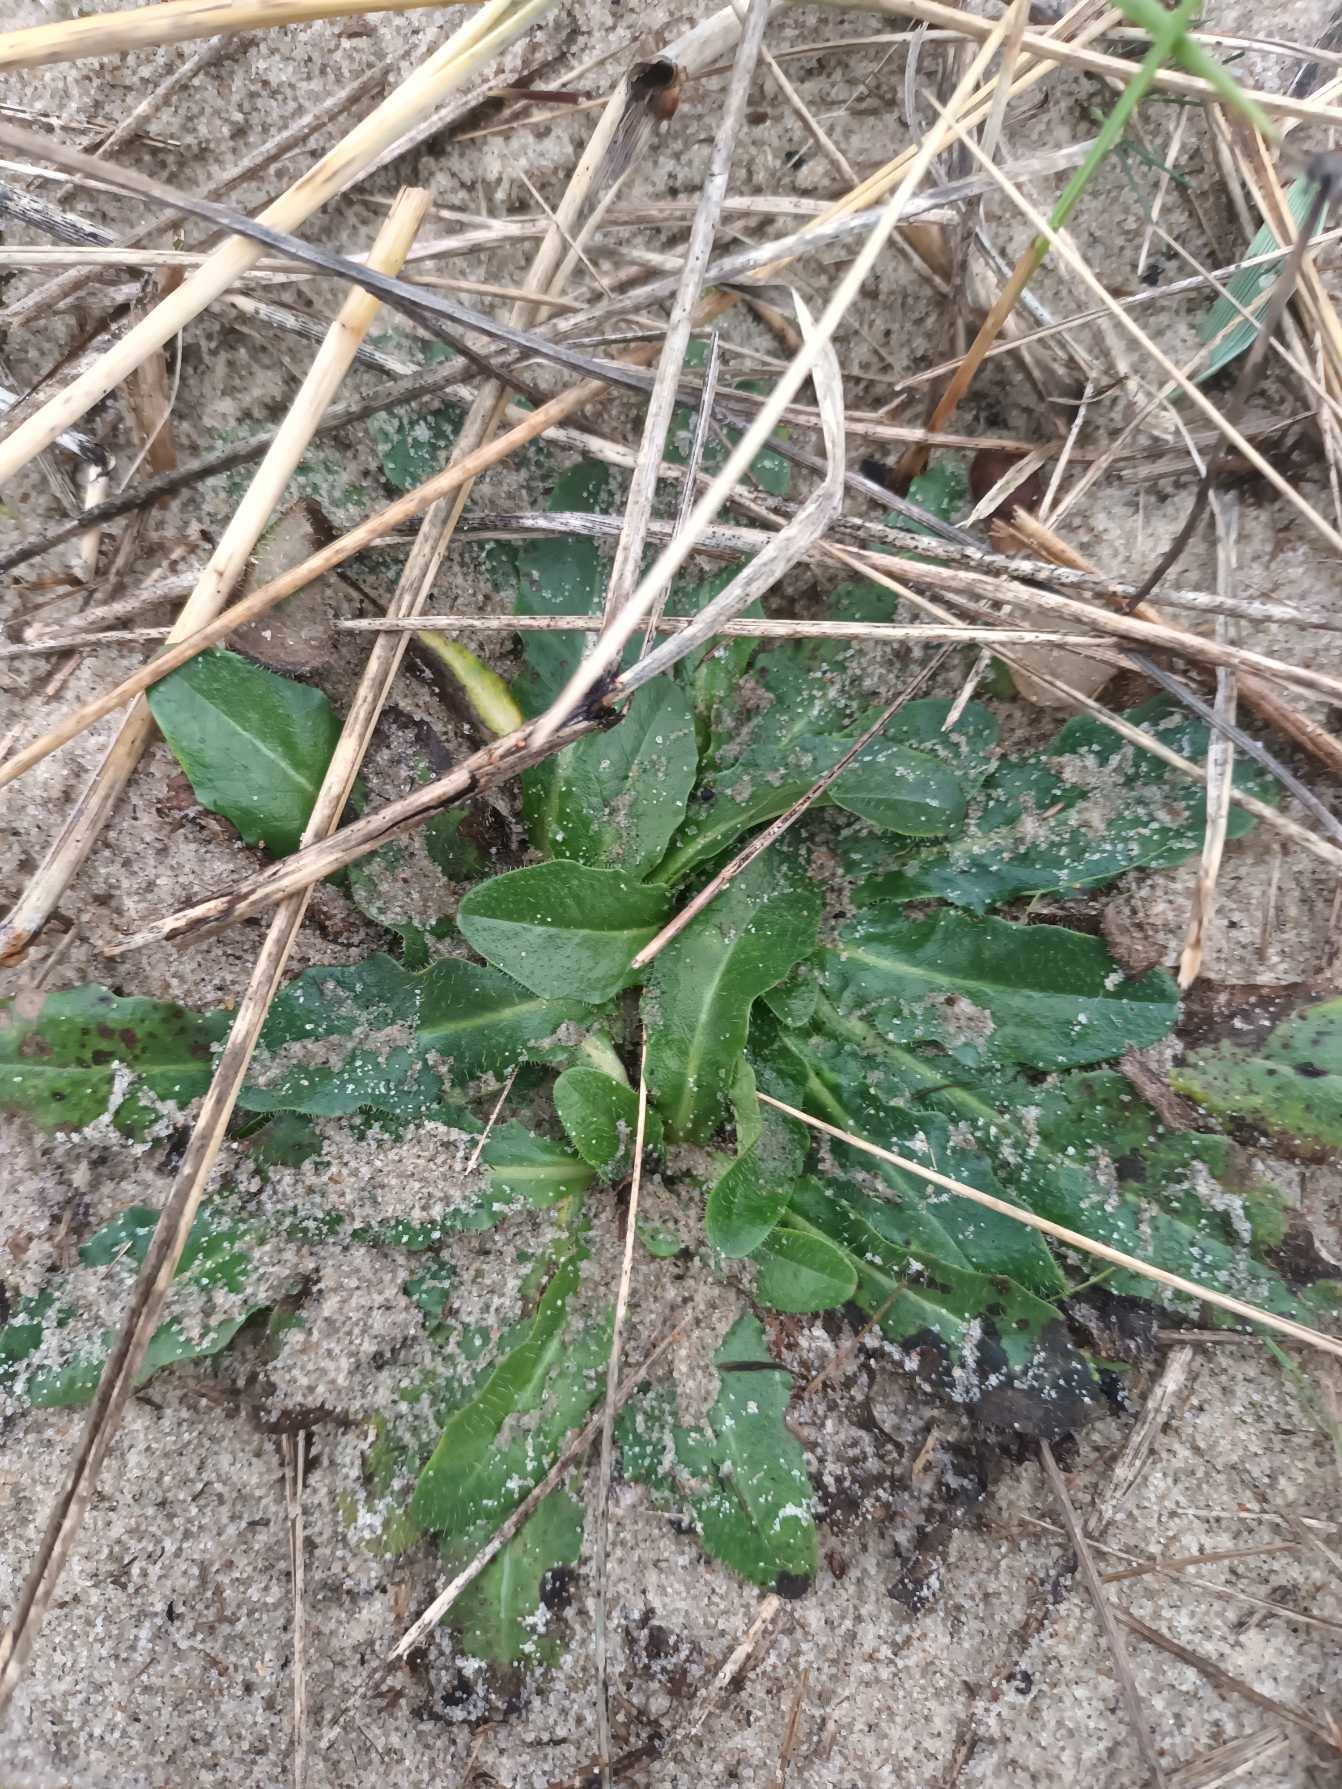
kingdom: Plantae
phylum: Tracheophyta
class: Magnoliopsida
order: Asterales
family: Asteraceae
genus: Hypochaeris
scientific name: Hypochaeris radicata
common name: Almindelig kongepen
